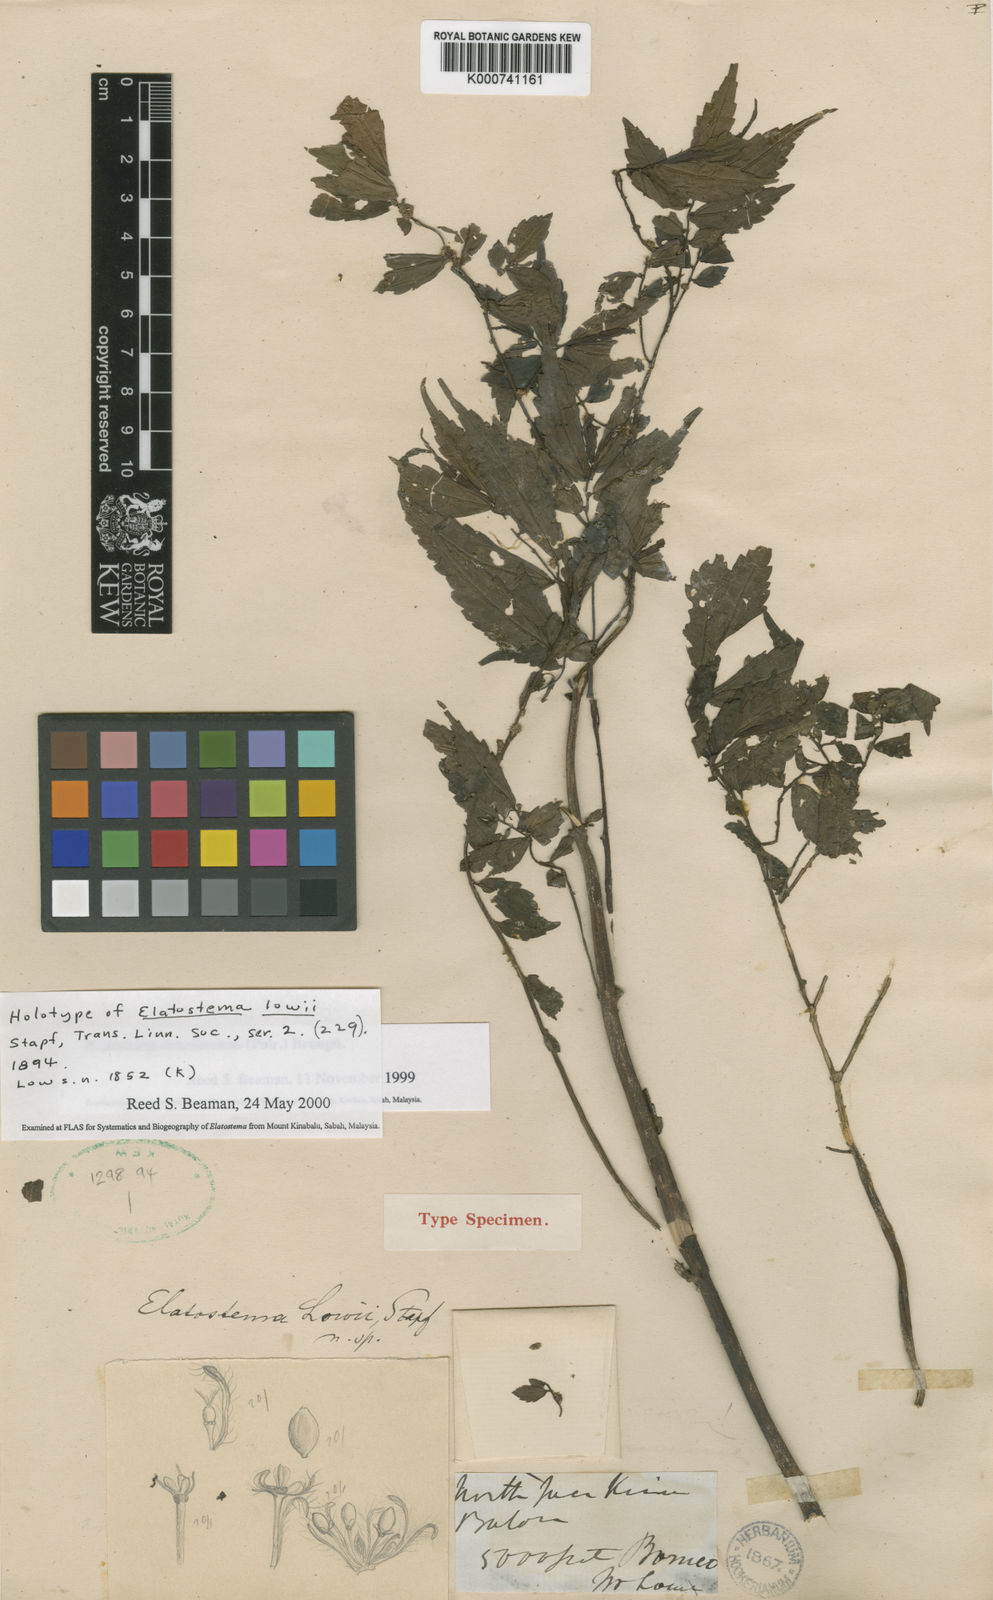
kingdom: Plantae
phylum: Tracheophyta
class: Magnoliopsida
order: Rosales
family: Urticaceae
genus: Elatostema
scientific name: Elatostema acuminatum
